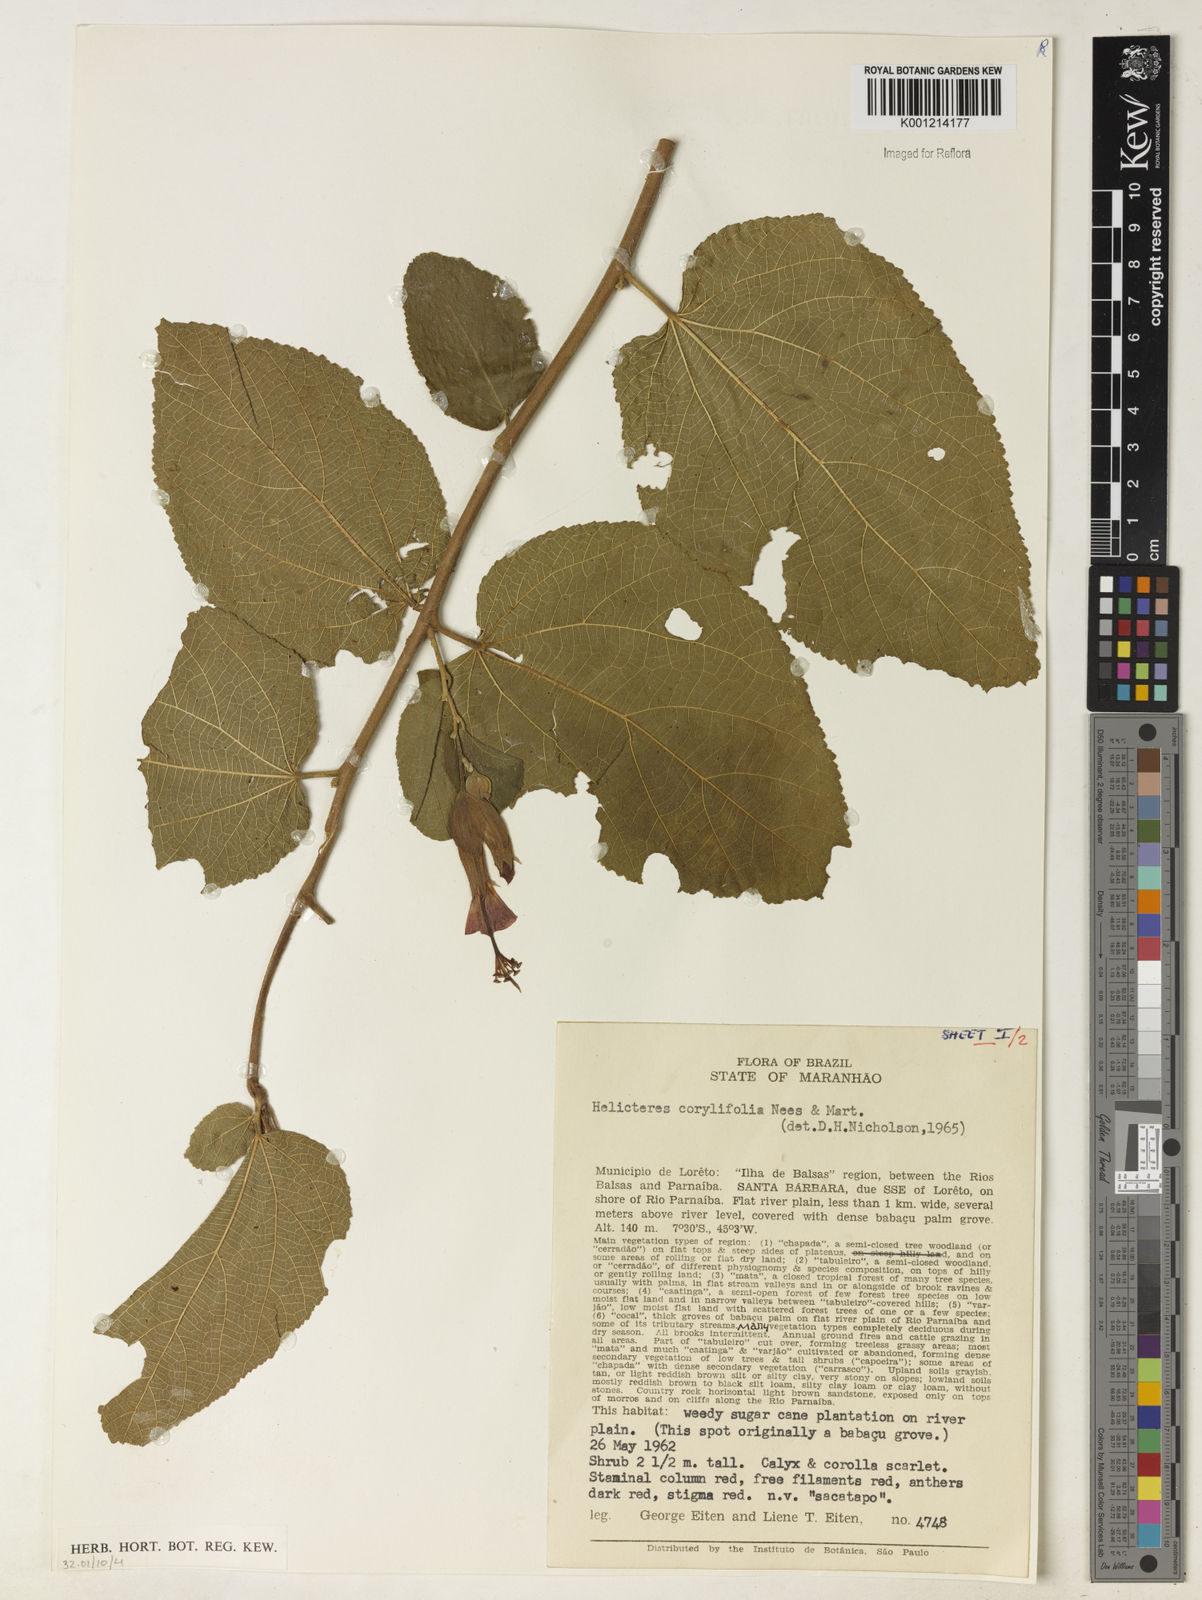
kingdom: Plantae
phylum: Tracheophyta
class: Magnoliopsida
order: Malvales
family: Malvaceae
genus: Helicteres
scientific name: Helicteres corylifolia
